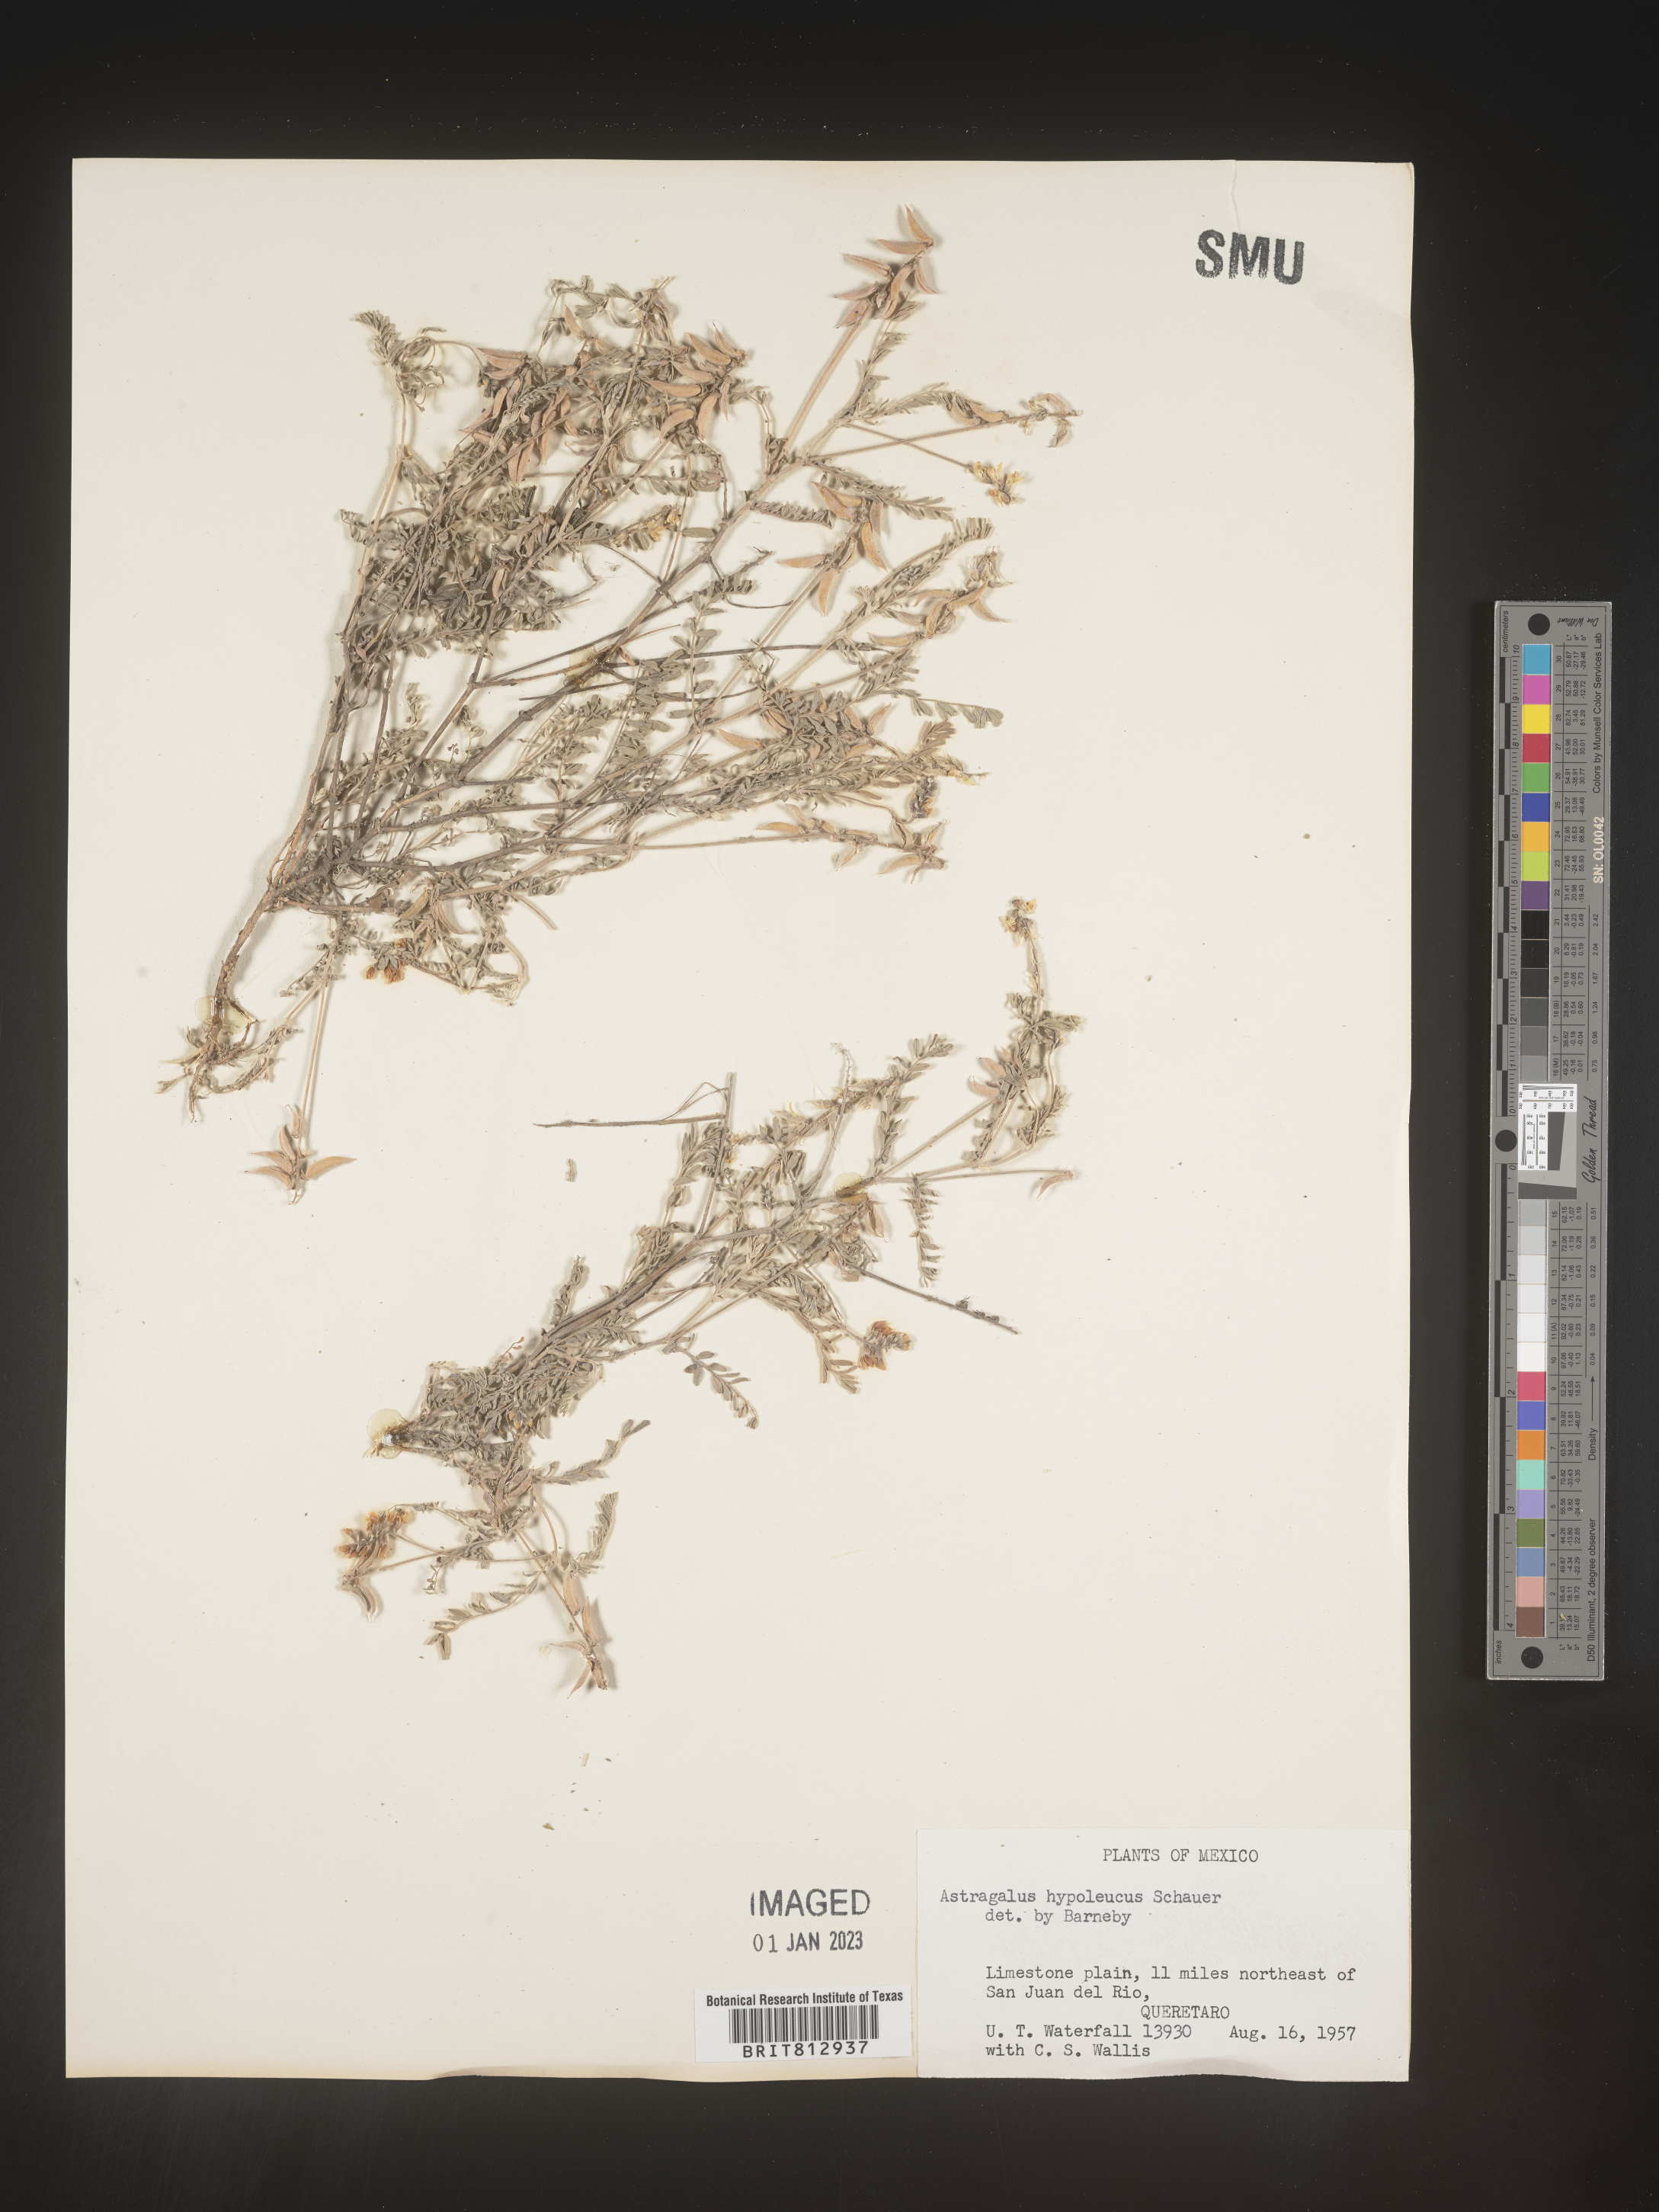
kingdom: Plantae
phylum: Tracheophyta
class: Magnoliopsida
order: Fabales
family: Fabaceae
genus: Astragalus
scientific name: Astragalus
